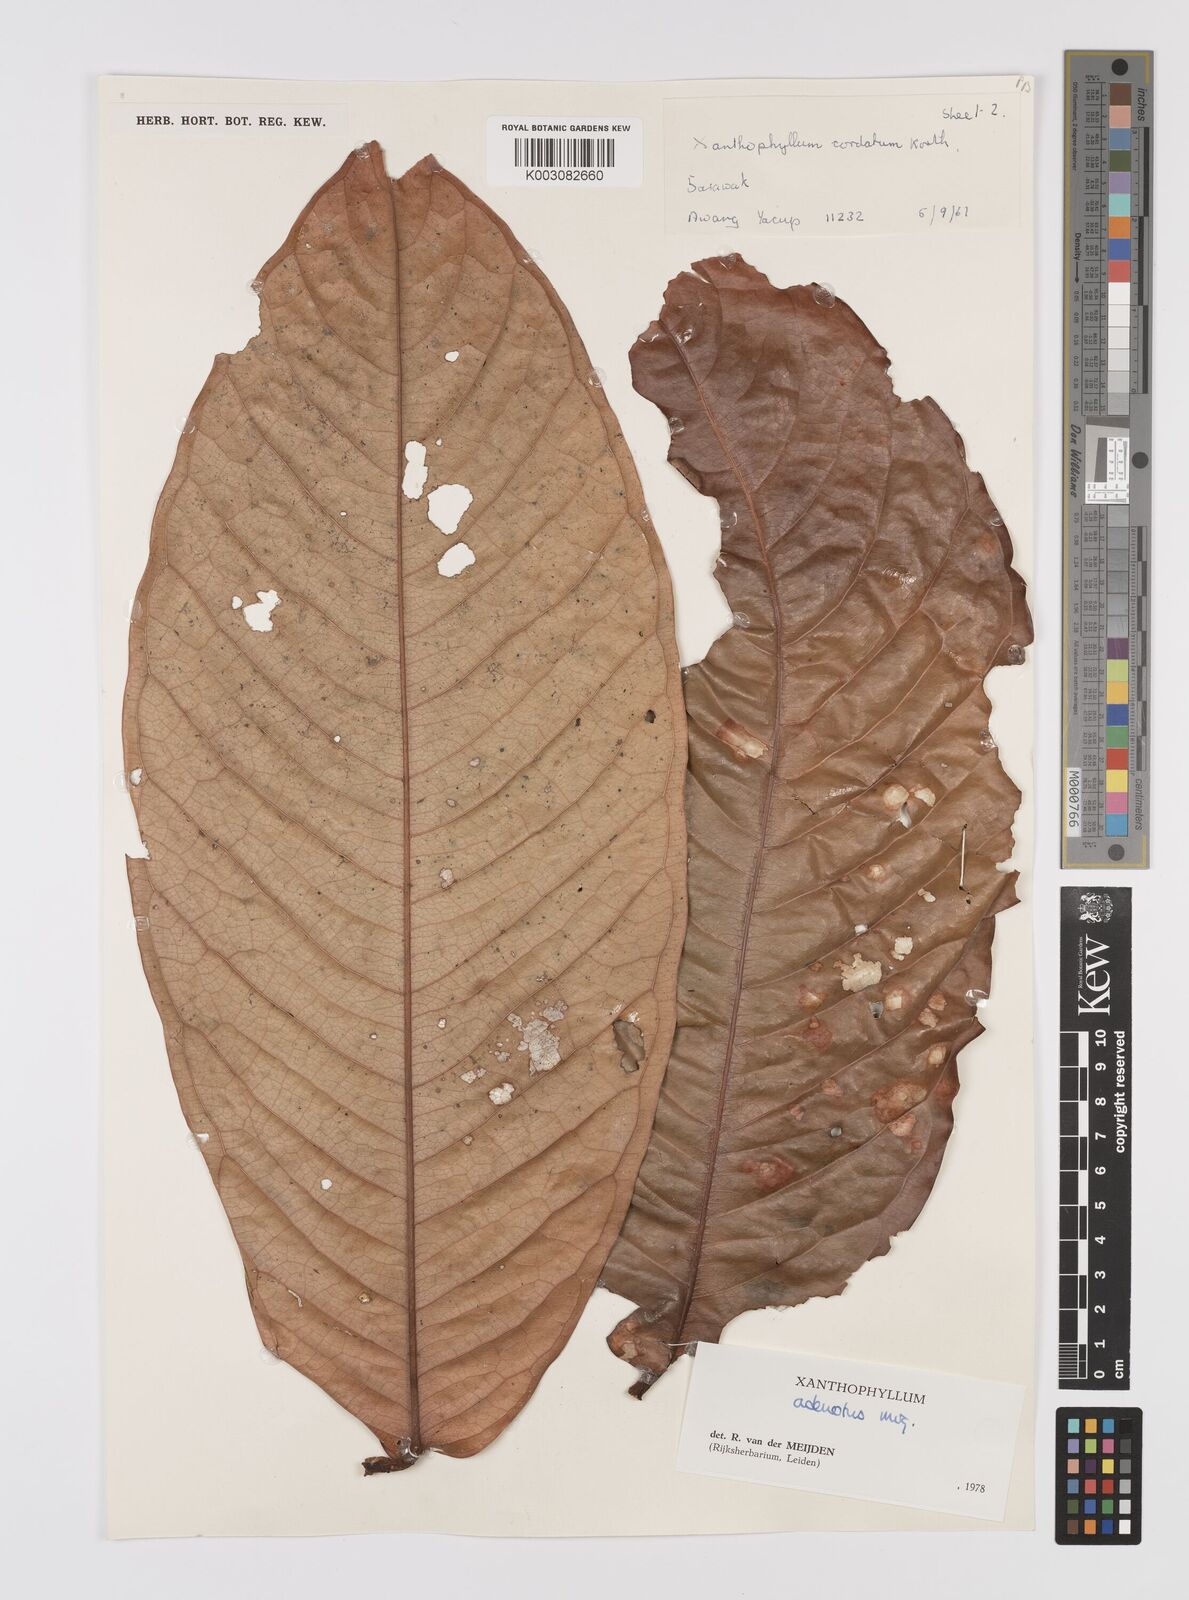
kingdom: Plantae
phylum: Tracheophyta
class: Magnoliopsida
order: Fabales
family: Polygalaceae
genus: Xanthophyllum
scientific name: Xanthophyllum adenotus
